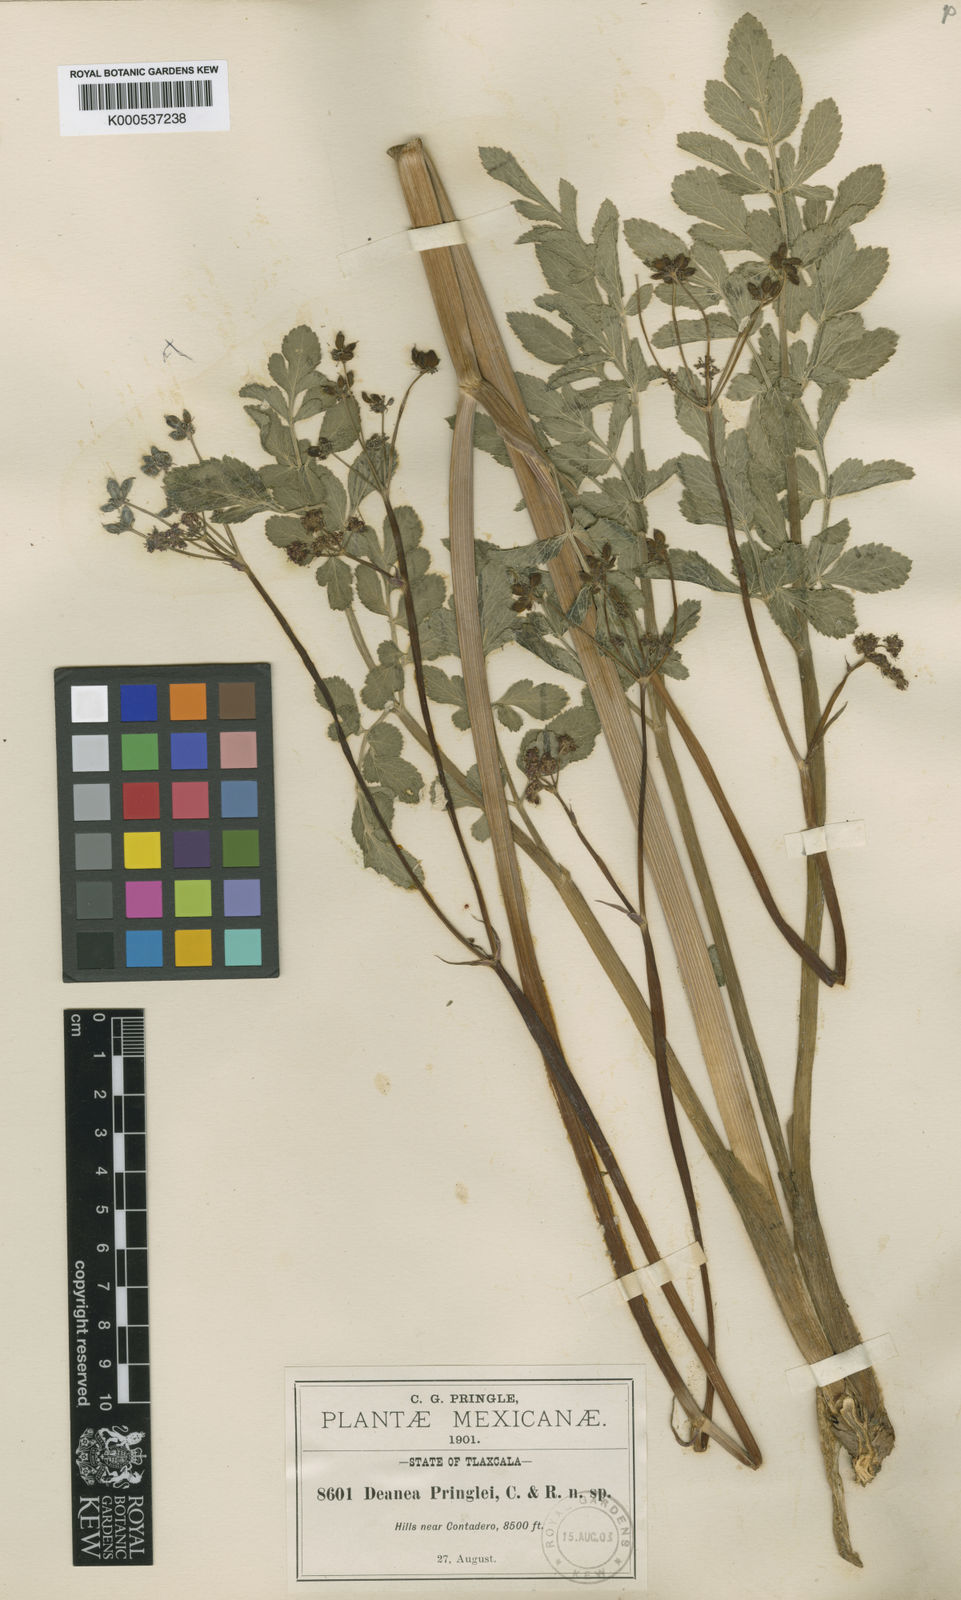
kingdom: Plantae
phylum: Tracheophyta
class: Magnoliopsida
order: Apiales
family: Apiaceae
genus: Rhodosciadium
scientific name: Rhodosciadium purpureum
